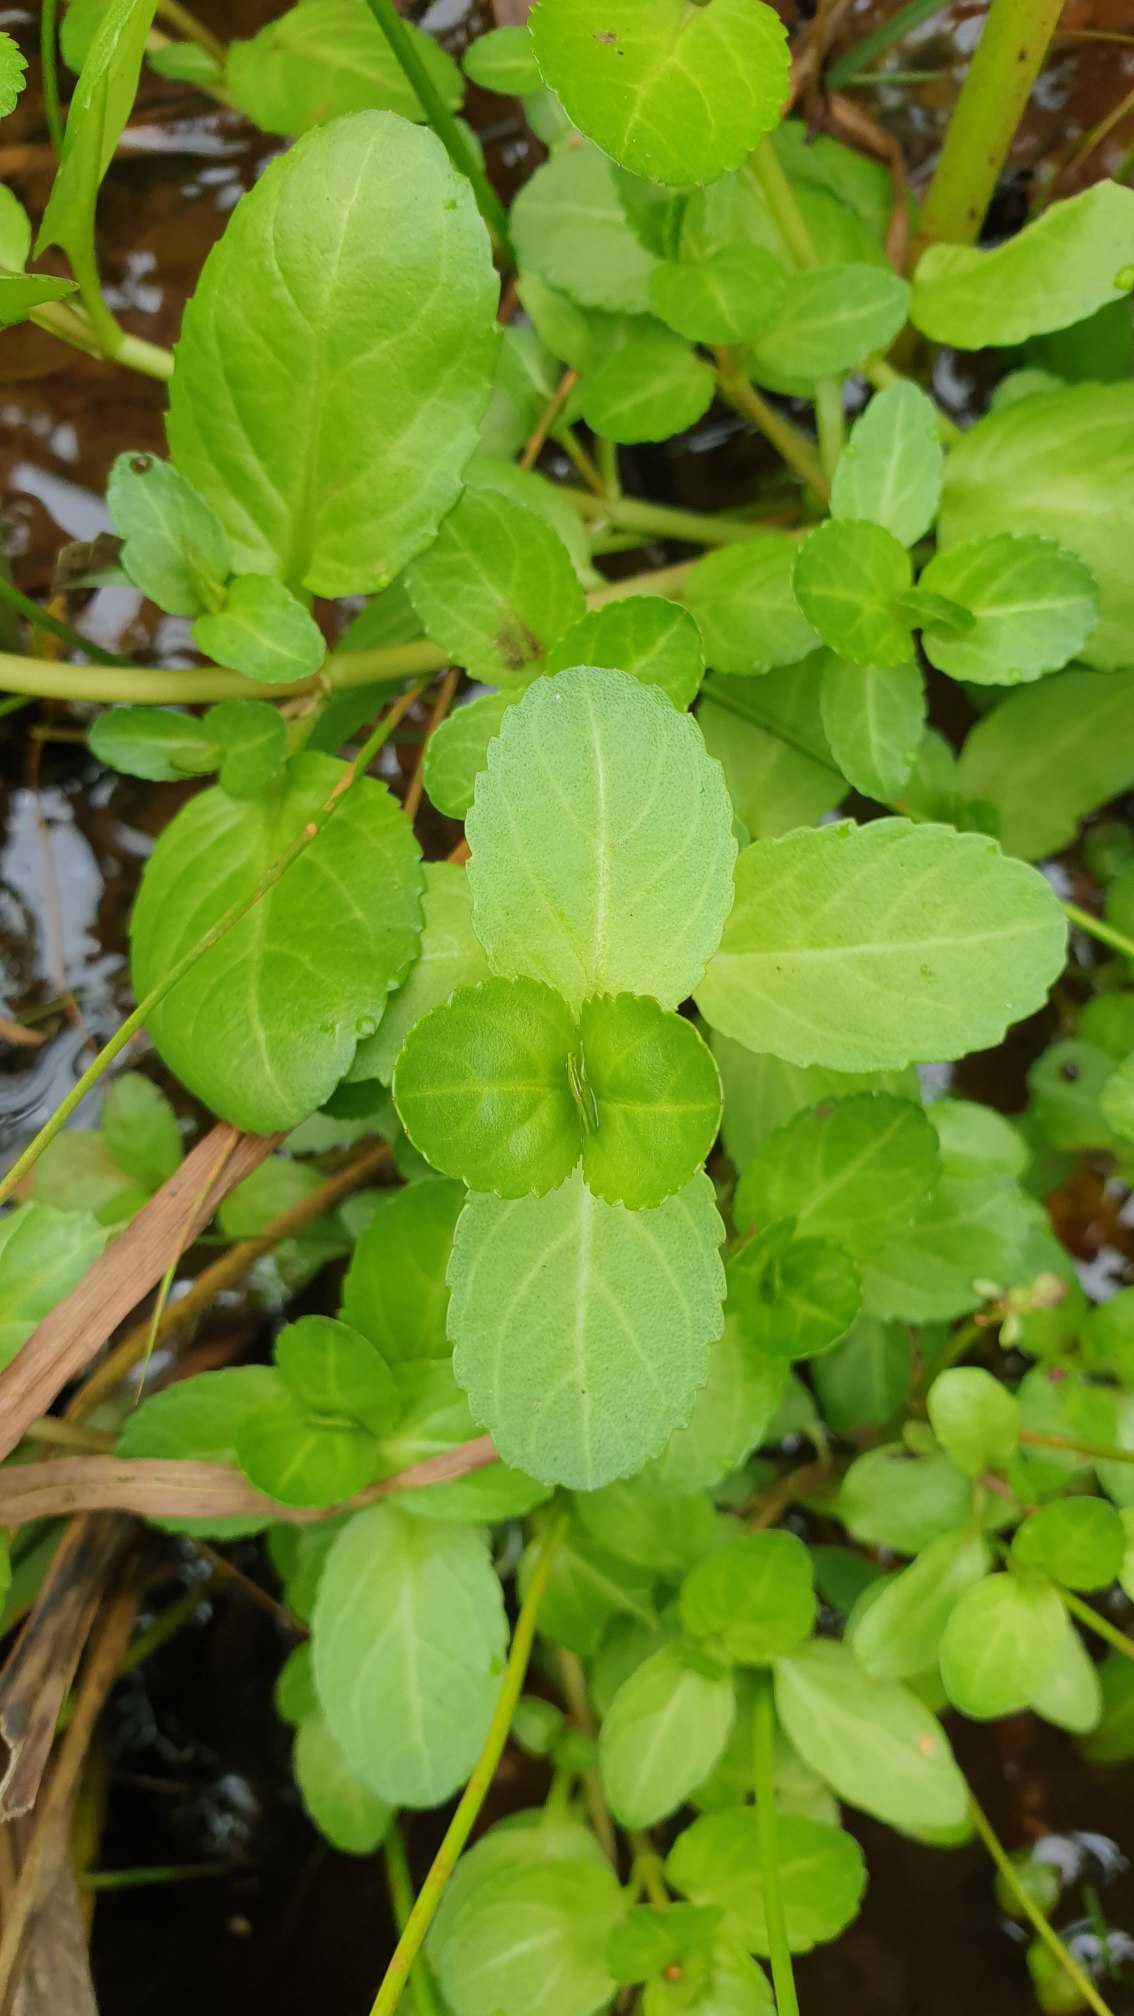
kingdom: Plantae
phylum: Tracheophyta
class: Magnoliopsida
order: Lamiales
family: Plantaginaceae
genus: Veronica
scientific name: Veronica beccabunga
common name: Tykbladet ærenpris
